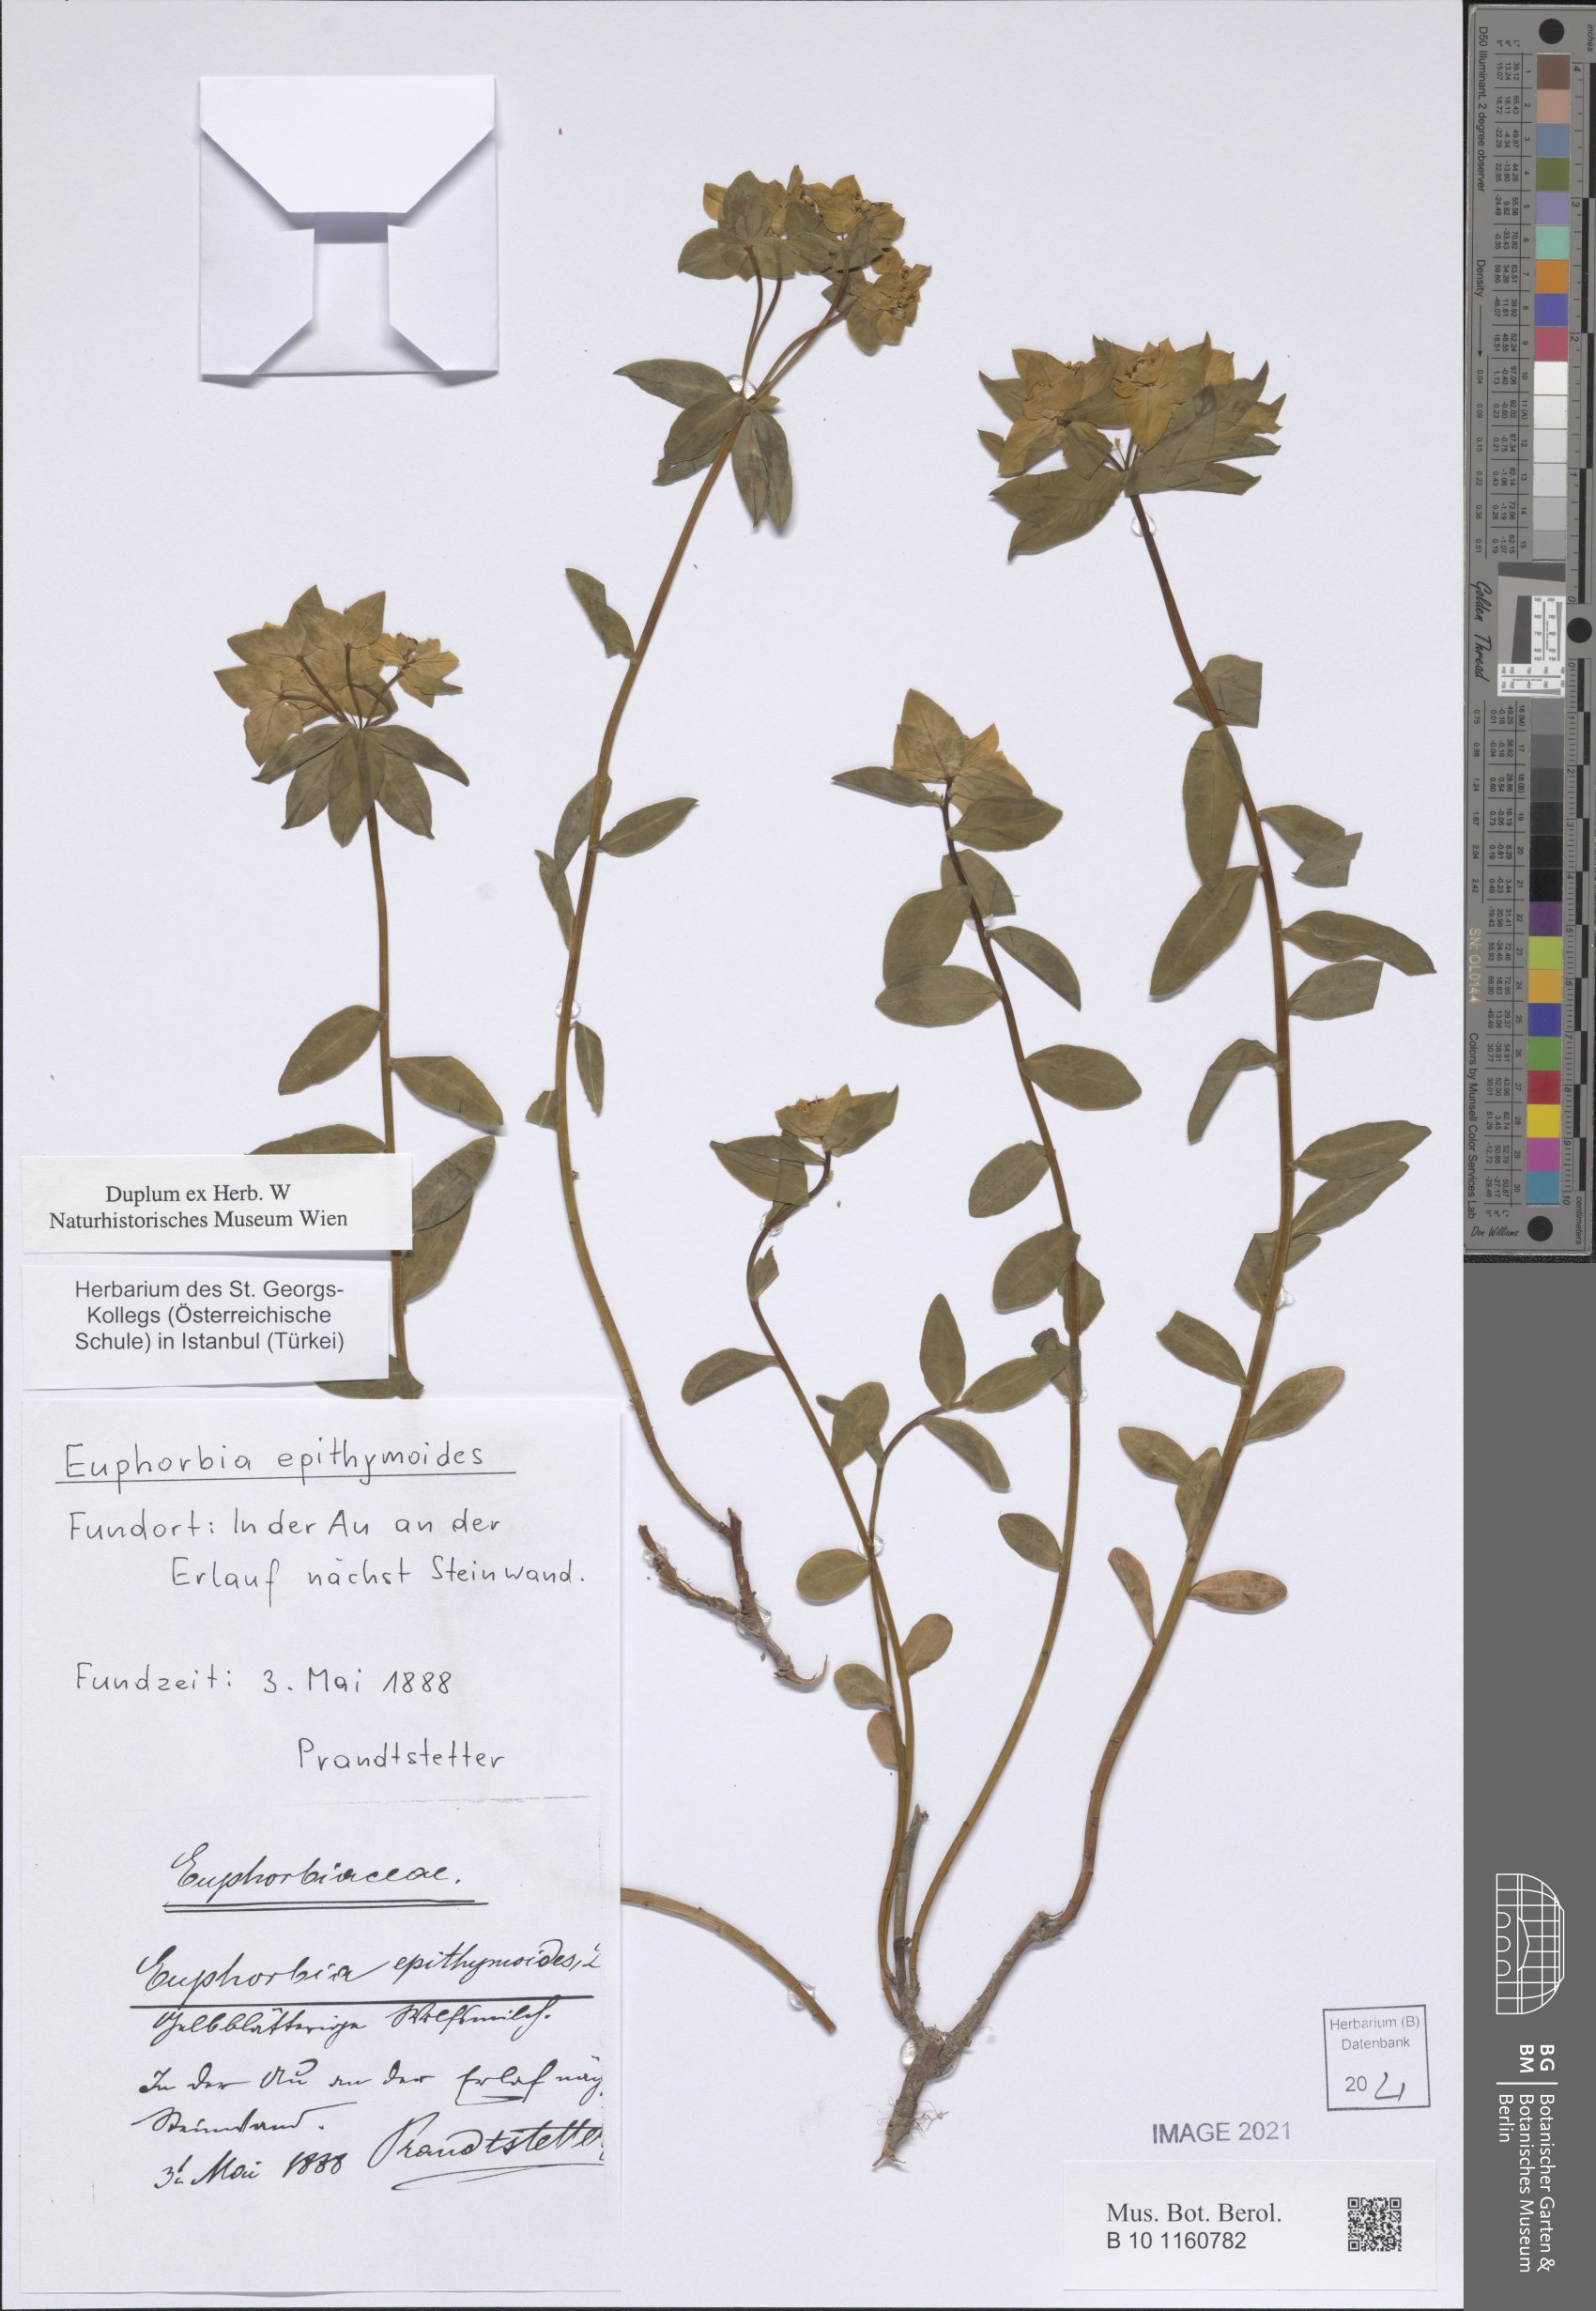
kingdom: Plantae
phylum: Tracheophyta
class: Magnoliopsida
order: Malpighiales
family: Euphorbiaceae
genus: Euphorbia
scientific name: Euphorbia epithymoides
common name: Cushion spurge
